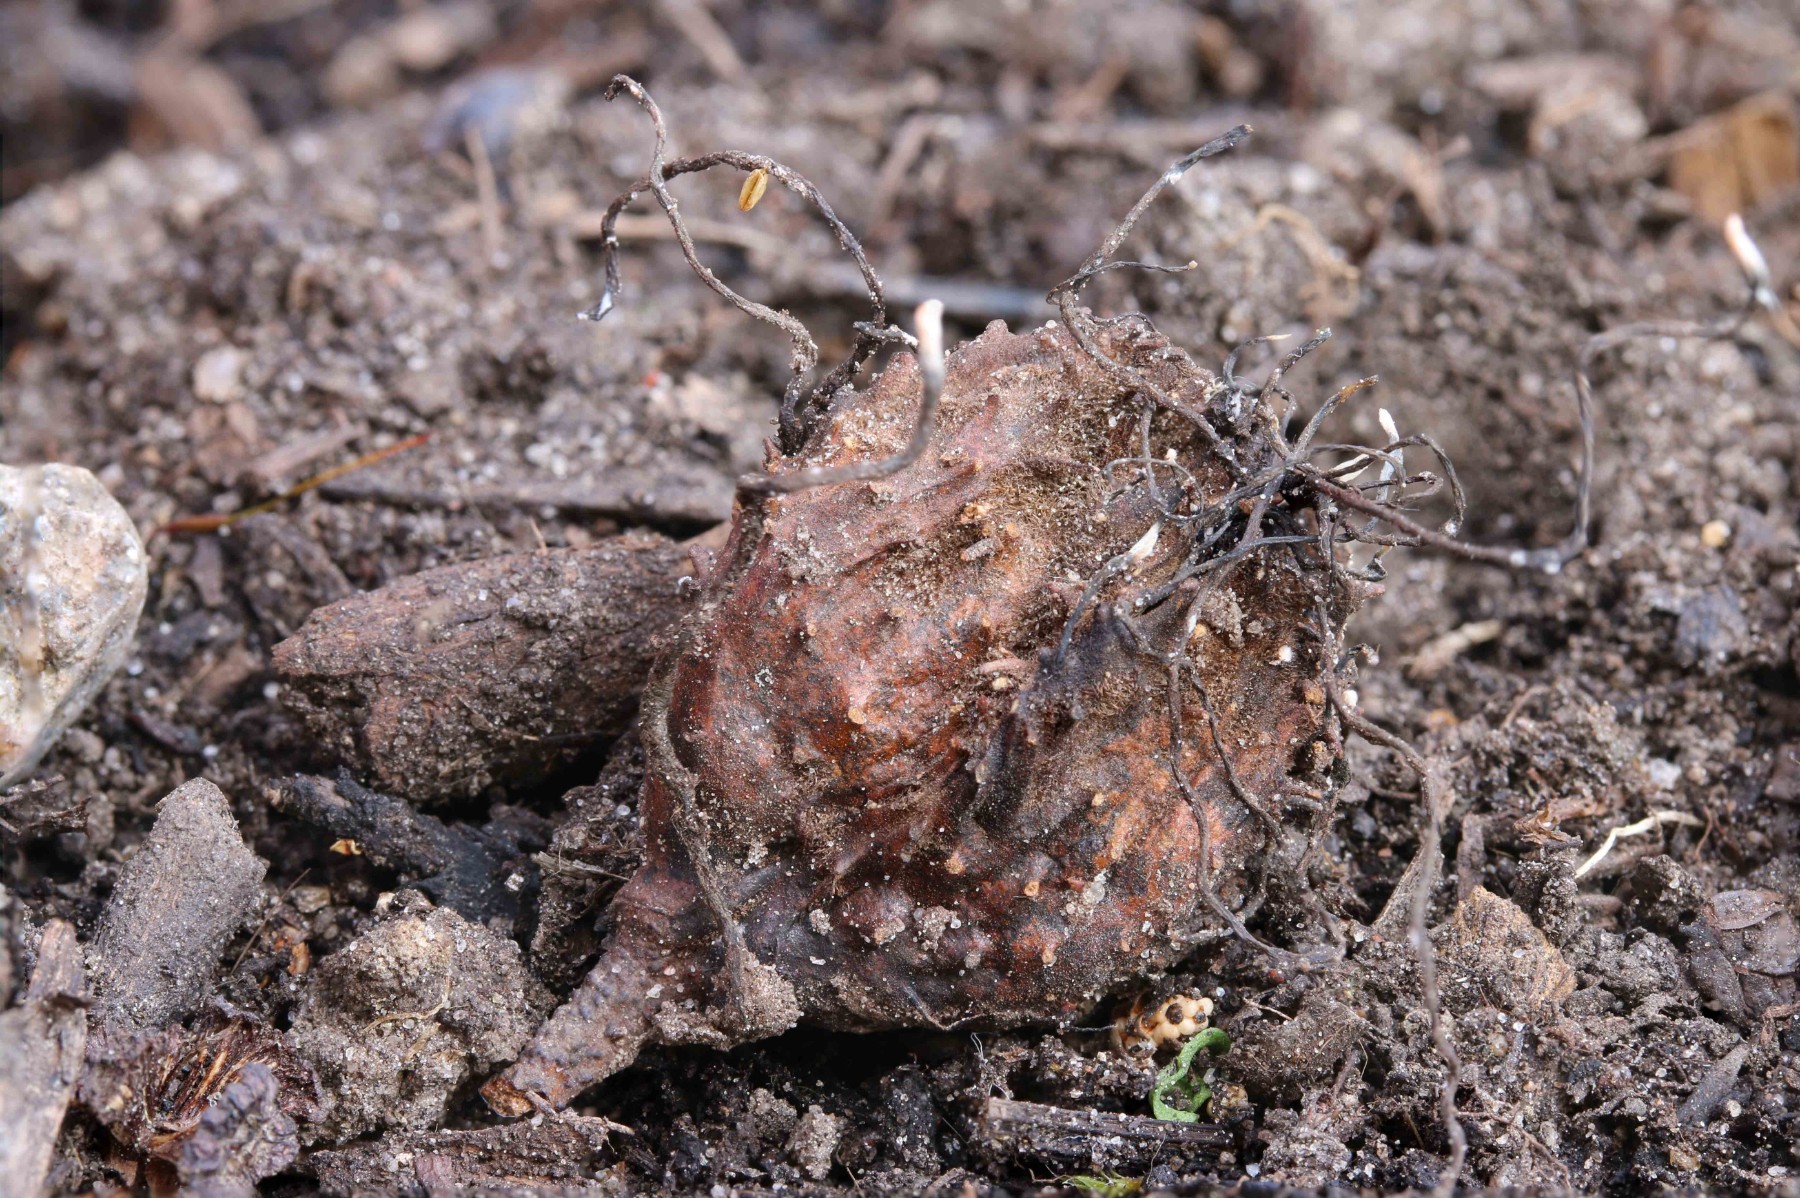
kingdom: Fungi
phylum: Ascomycota
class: Sordariomycetes
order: Xylariales
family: Xylariaceae
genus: Xylaria
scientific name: Xylaria carpophila
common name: bogskål-stødsvamp
